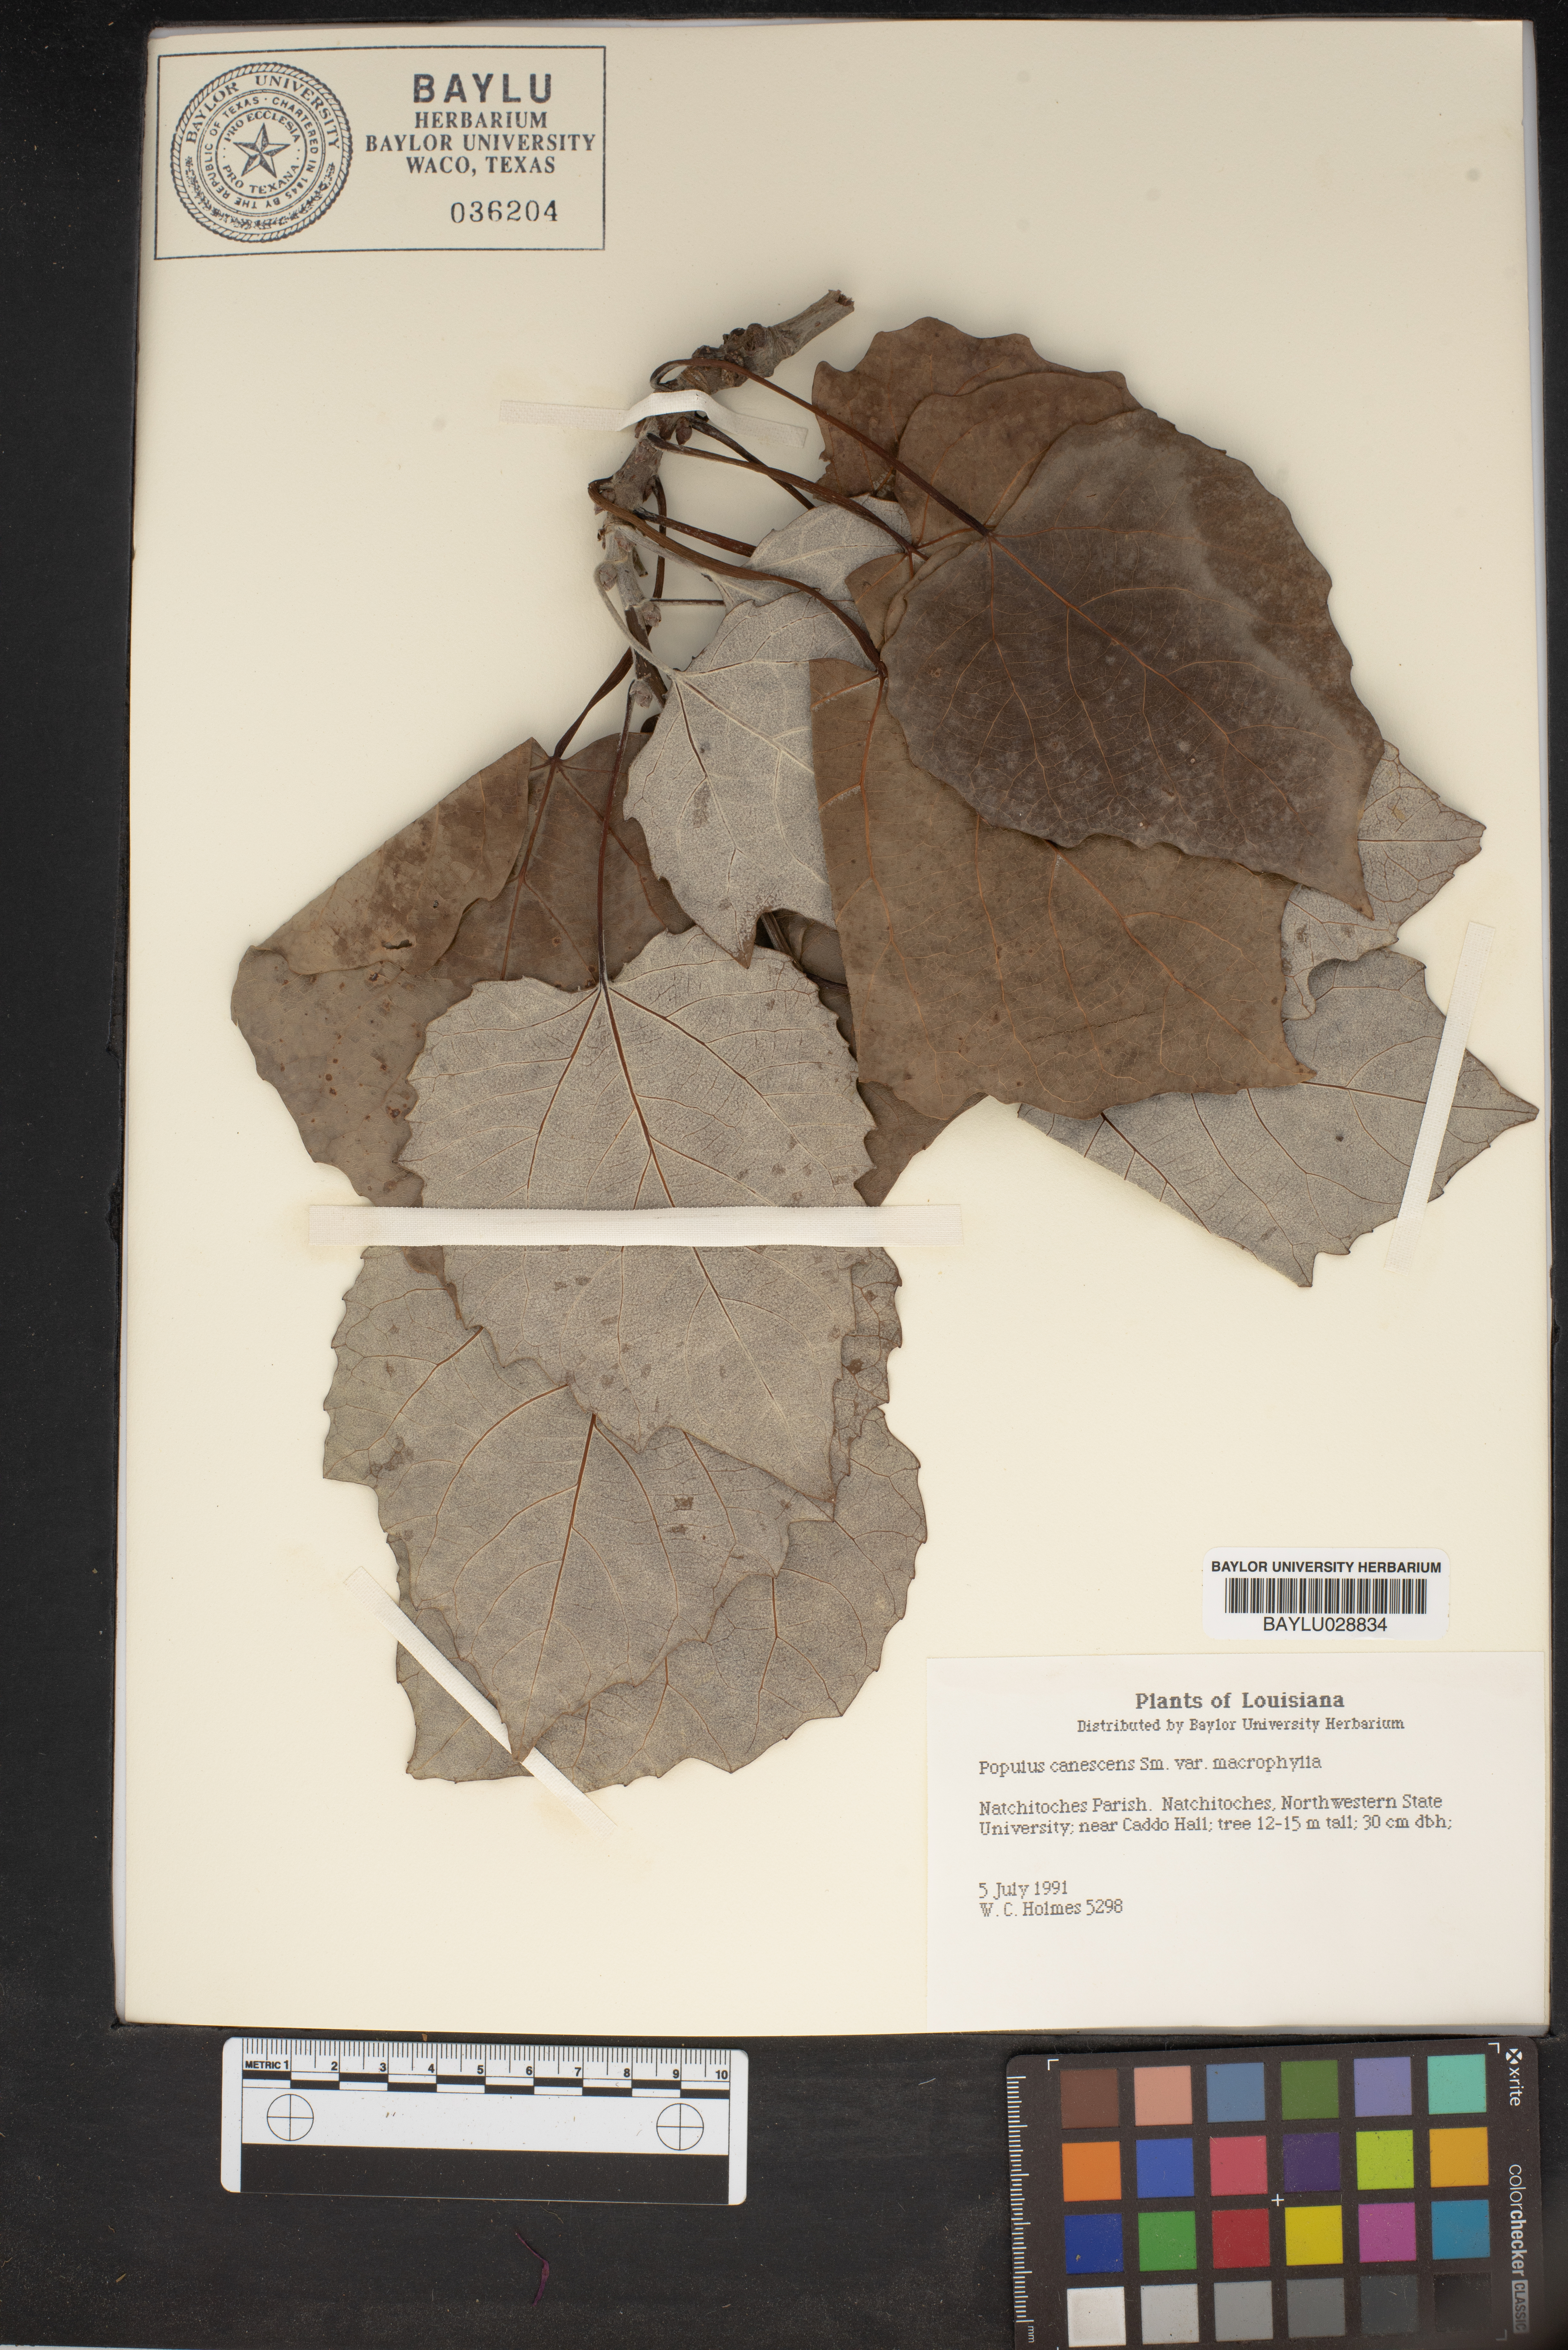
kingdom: Plantae
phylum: Tracheophyta
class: Magnoliopsida
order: Malpighiales
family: Salicaceae
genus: Populus
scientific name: Populus canescens
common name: Gray poplar
